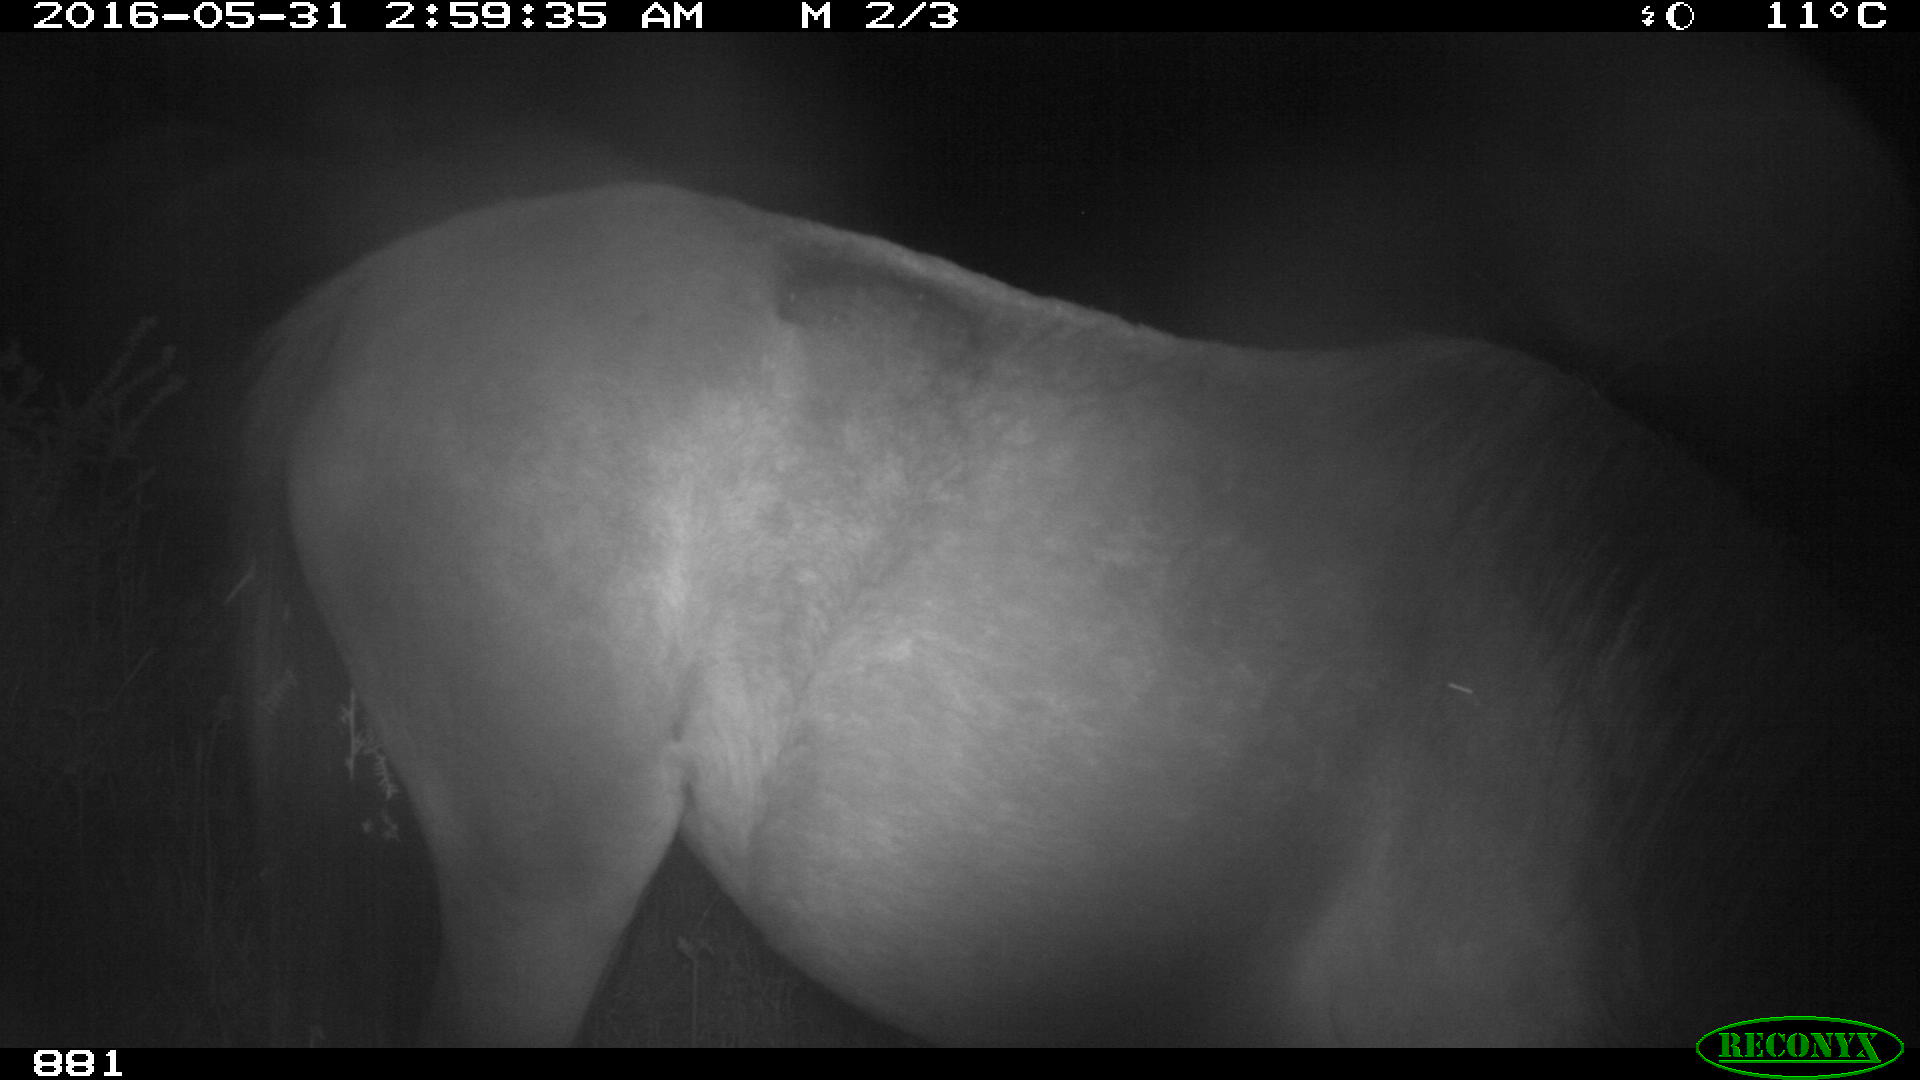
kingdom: Animalia
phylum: Chordata
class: Mammalia
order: Perissodactyla
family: Equidae
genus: Equus
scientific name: Equus caballus
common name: Horse
